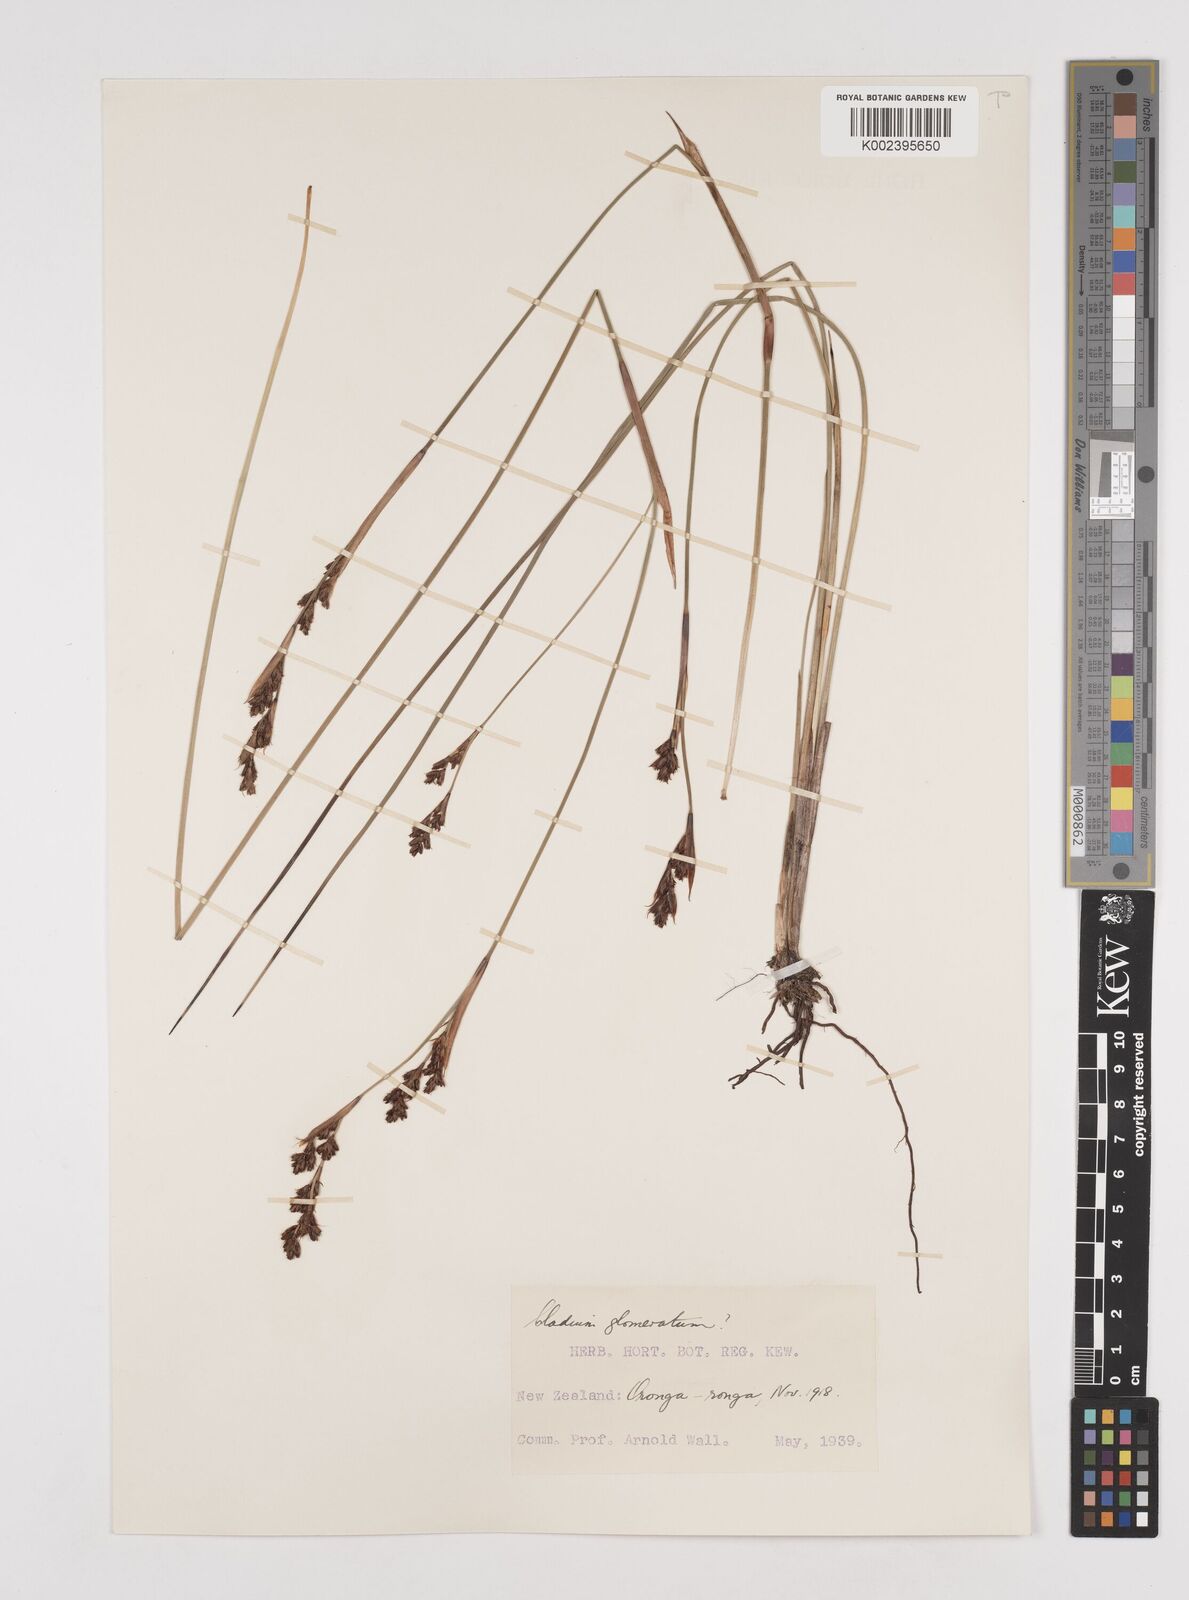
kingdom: Plantae
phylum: Tracheophyta
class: Liliopsida
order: Poales
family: Cyperaceae
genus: Machaerina
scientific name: Machaerina rubiginosa
